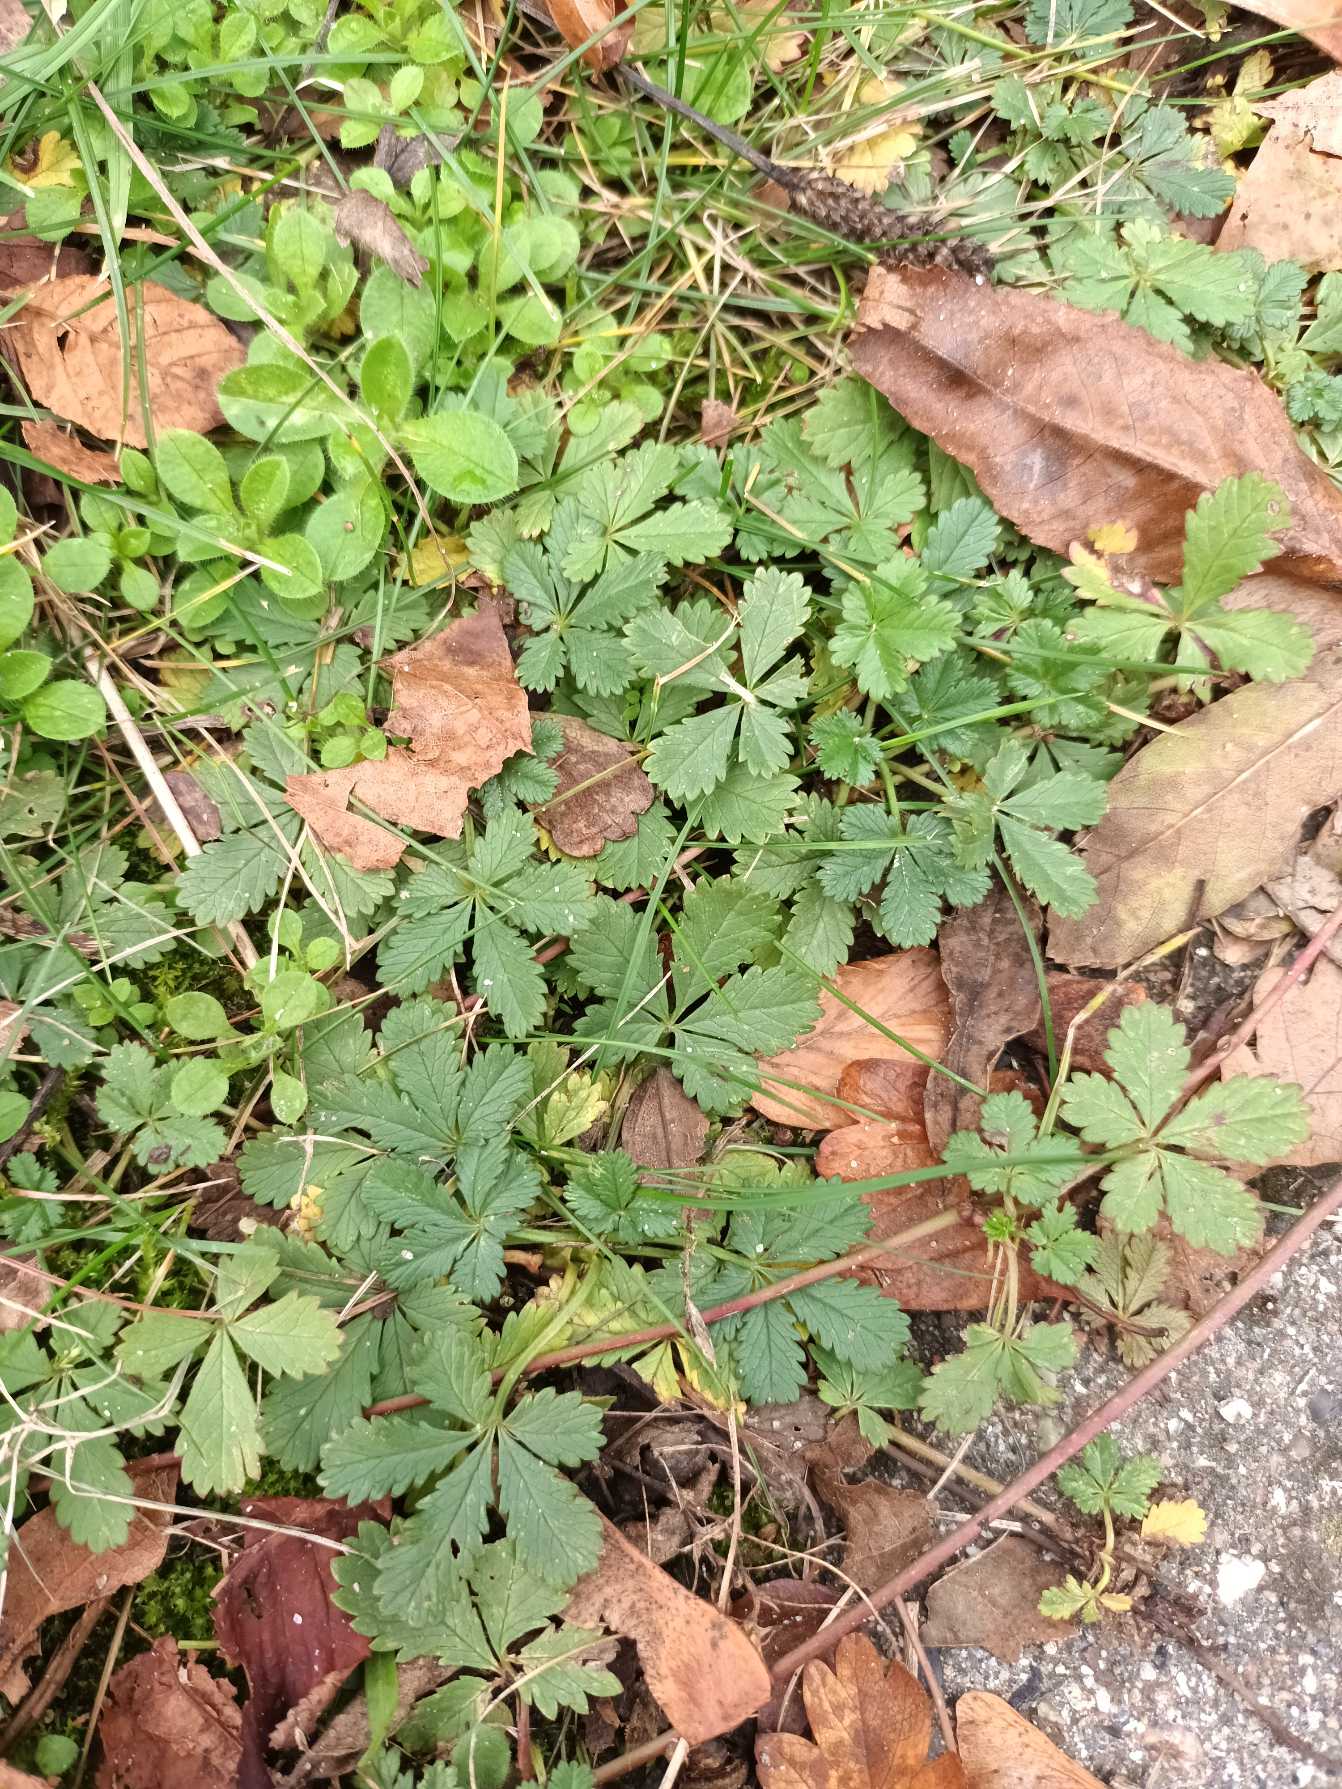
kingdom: Plantae
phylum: Tracheophyta
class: Magnoliopsida
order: Rosales
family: Rosaceae
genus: Potentilla
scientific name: Potentilla reptans
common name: Krybende potentil
